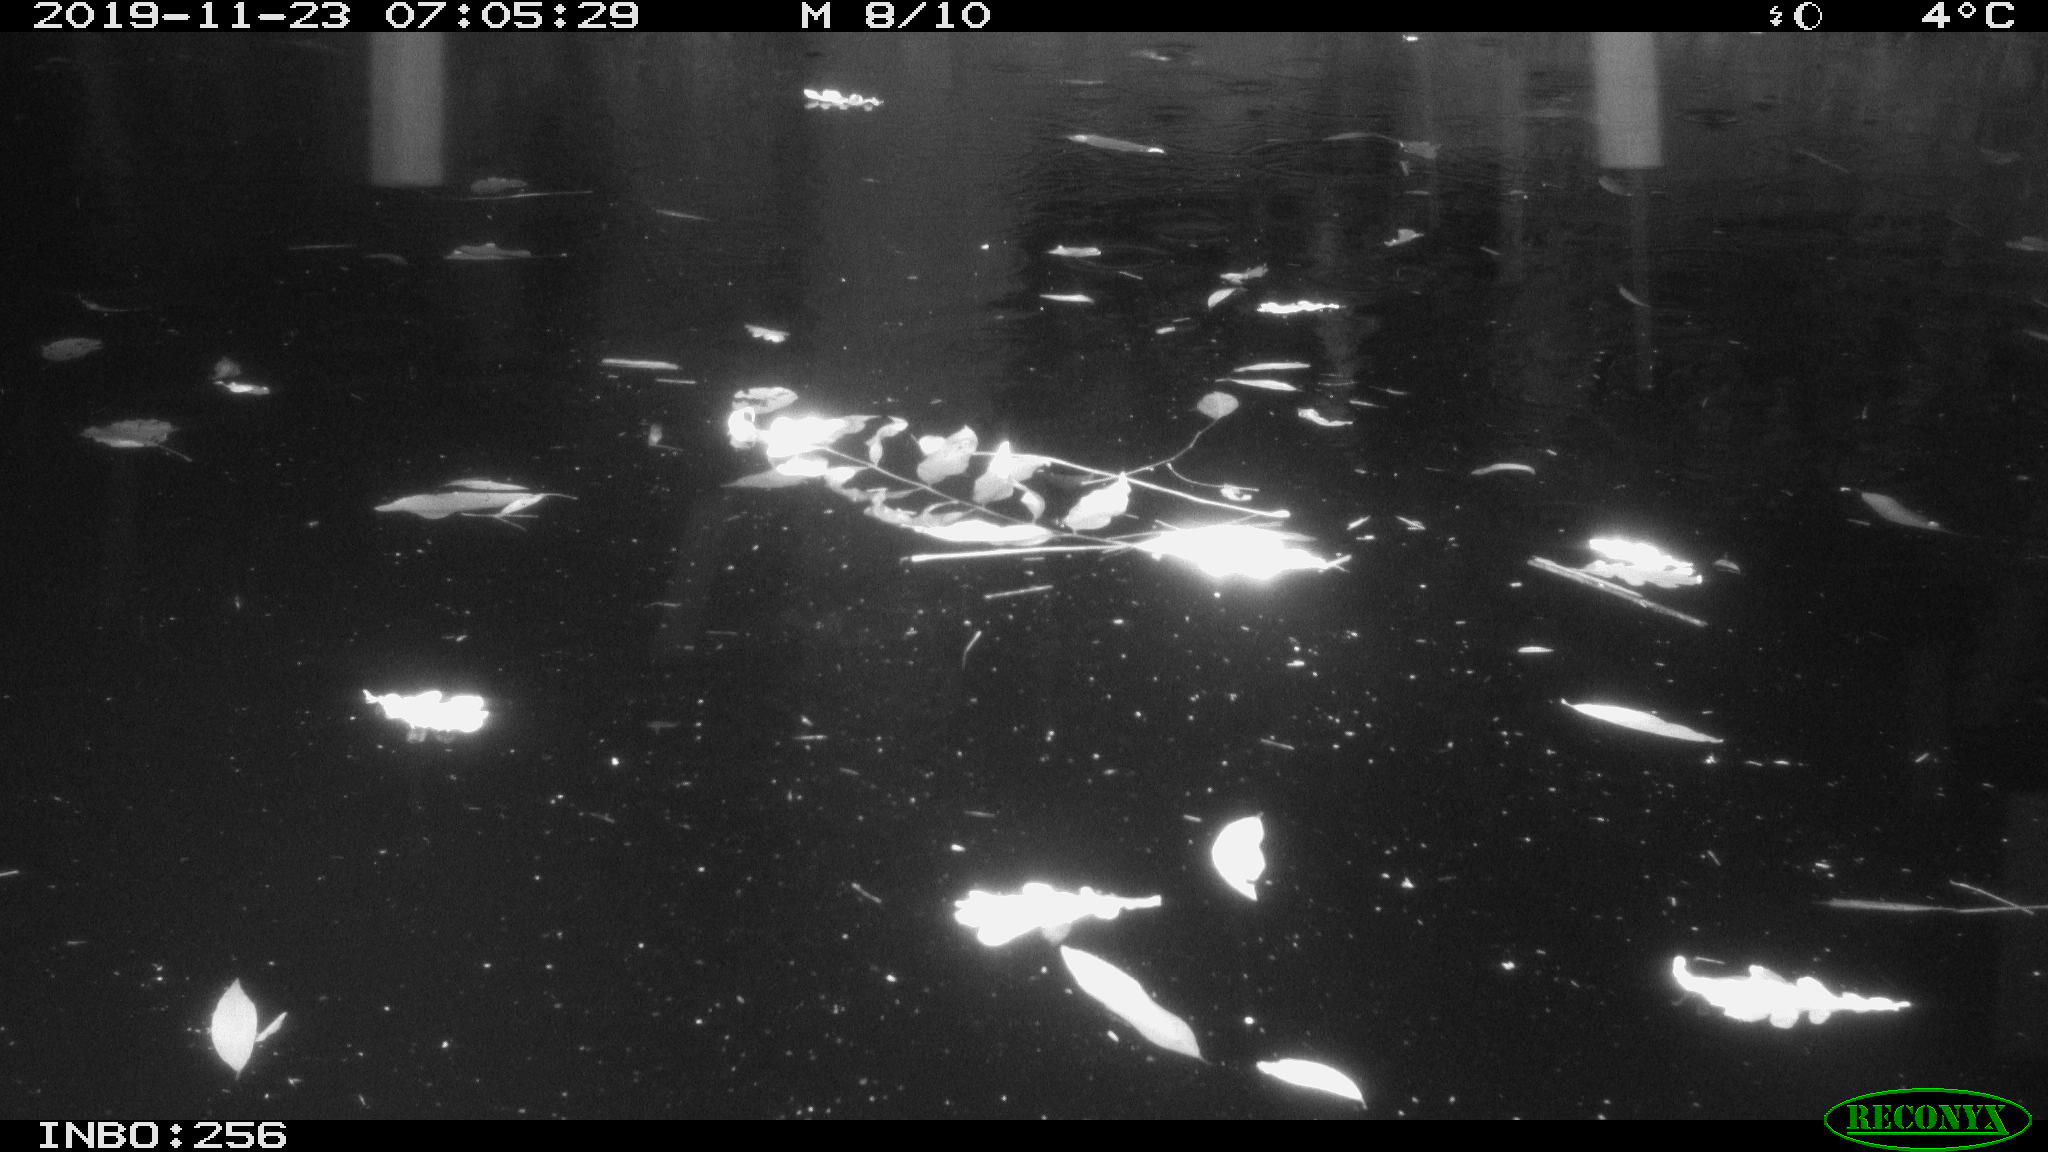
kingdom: Animalia
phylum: Chordata
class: Mammalia
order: Rodentia
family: Cricetidae
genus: Ondatra
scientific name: Ondatra zibethicus
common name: Muskrat
